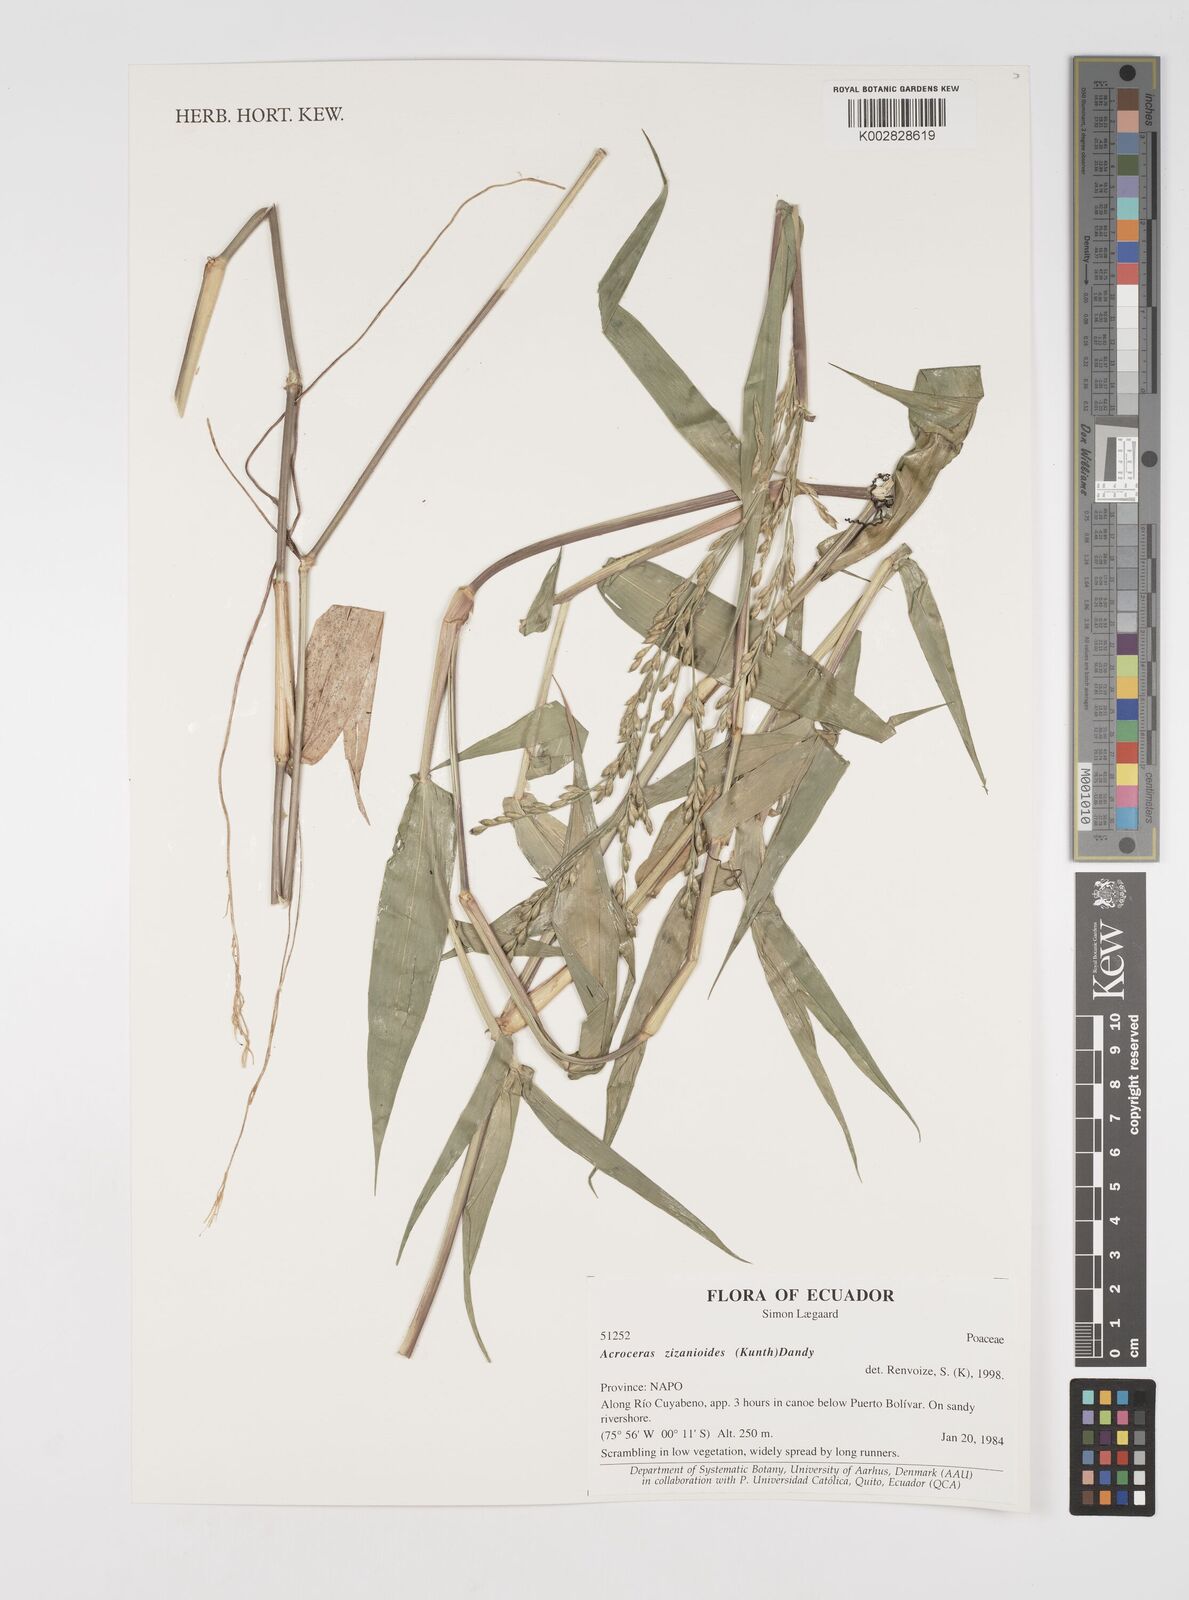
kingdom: Plantae
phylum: Tracheophyta
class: Liliopsida
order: Poales
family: Poaceae
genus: Acroceras
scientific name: Acroceras zizanioides
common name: Oat grass
